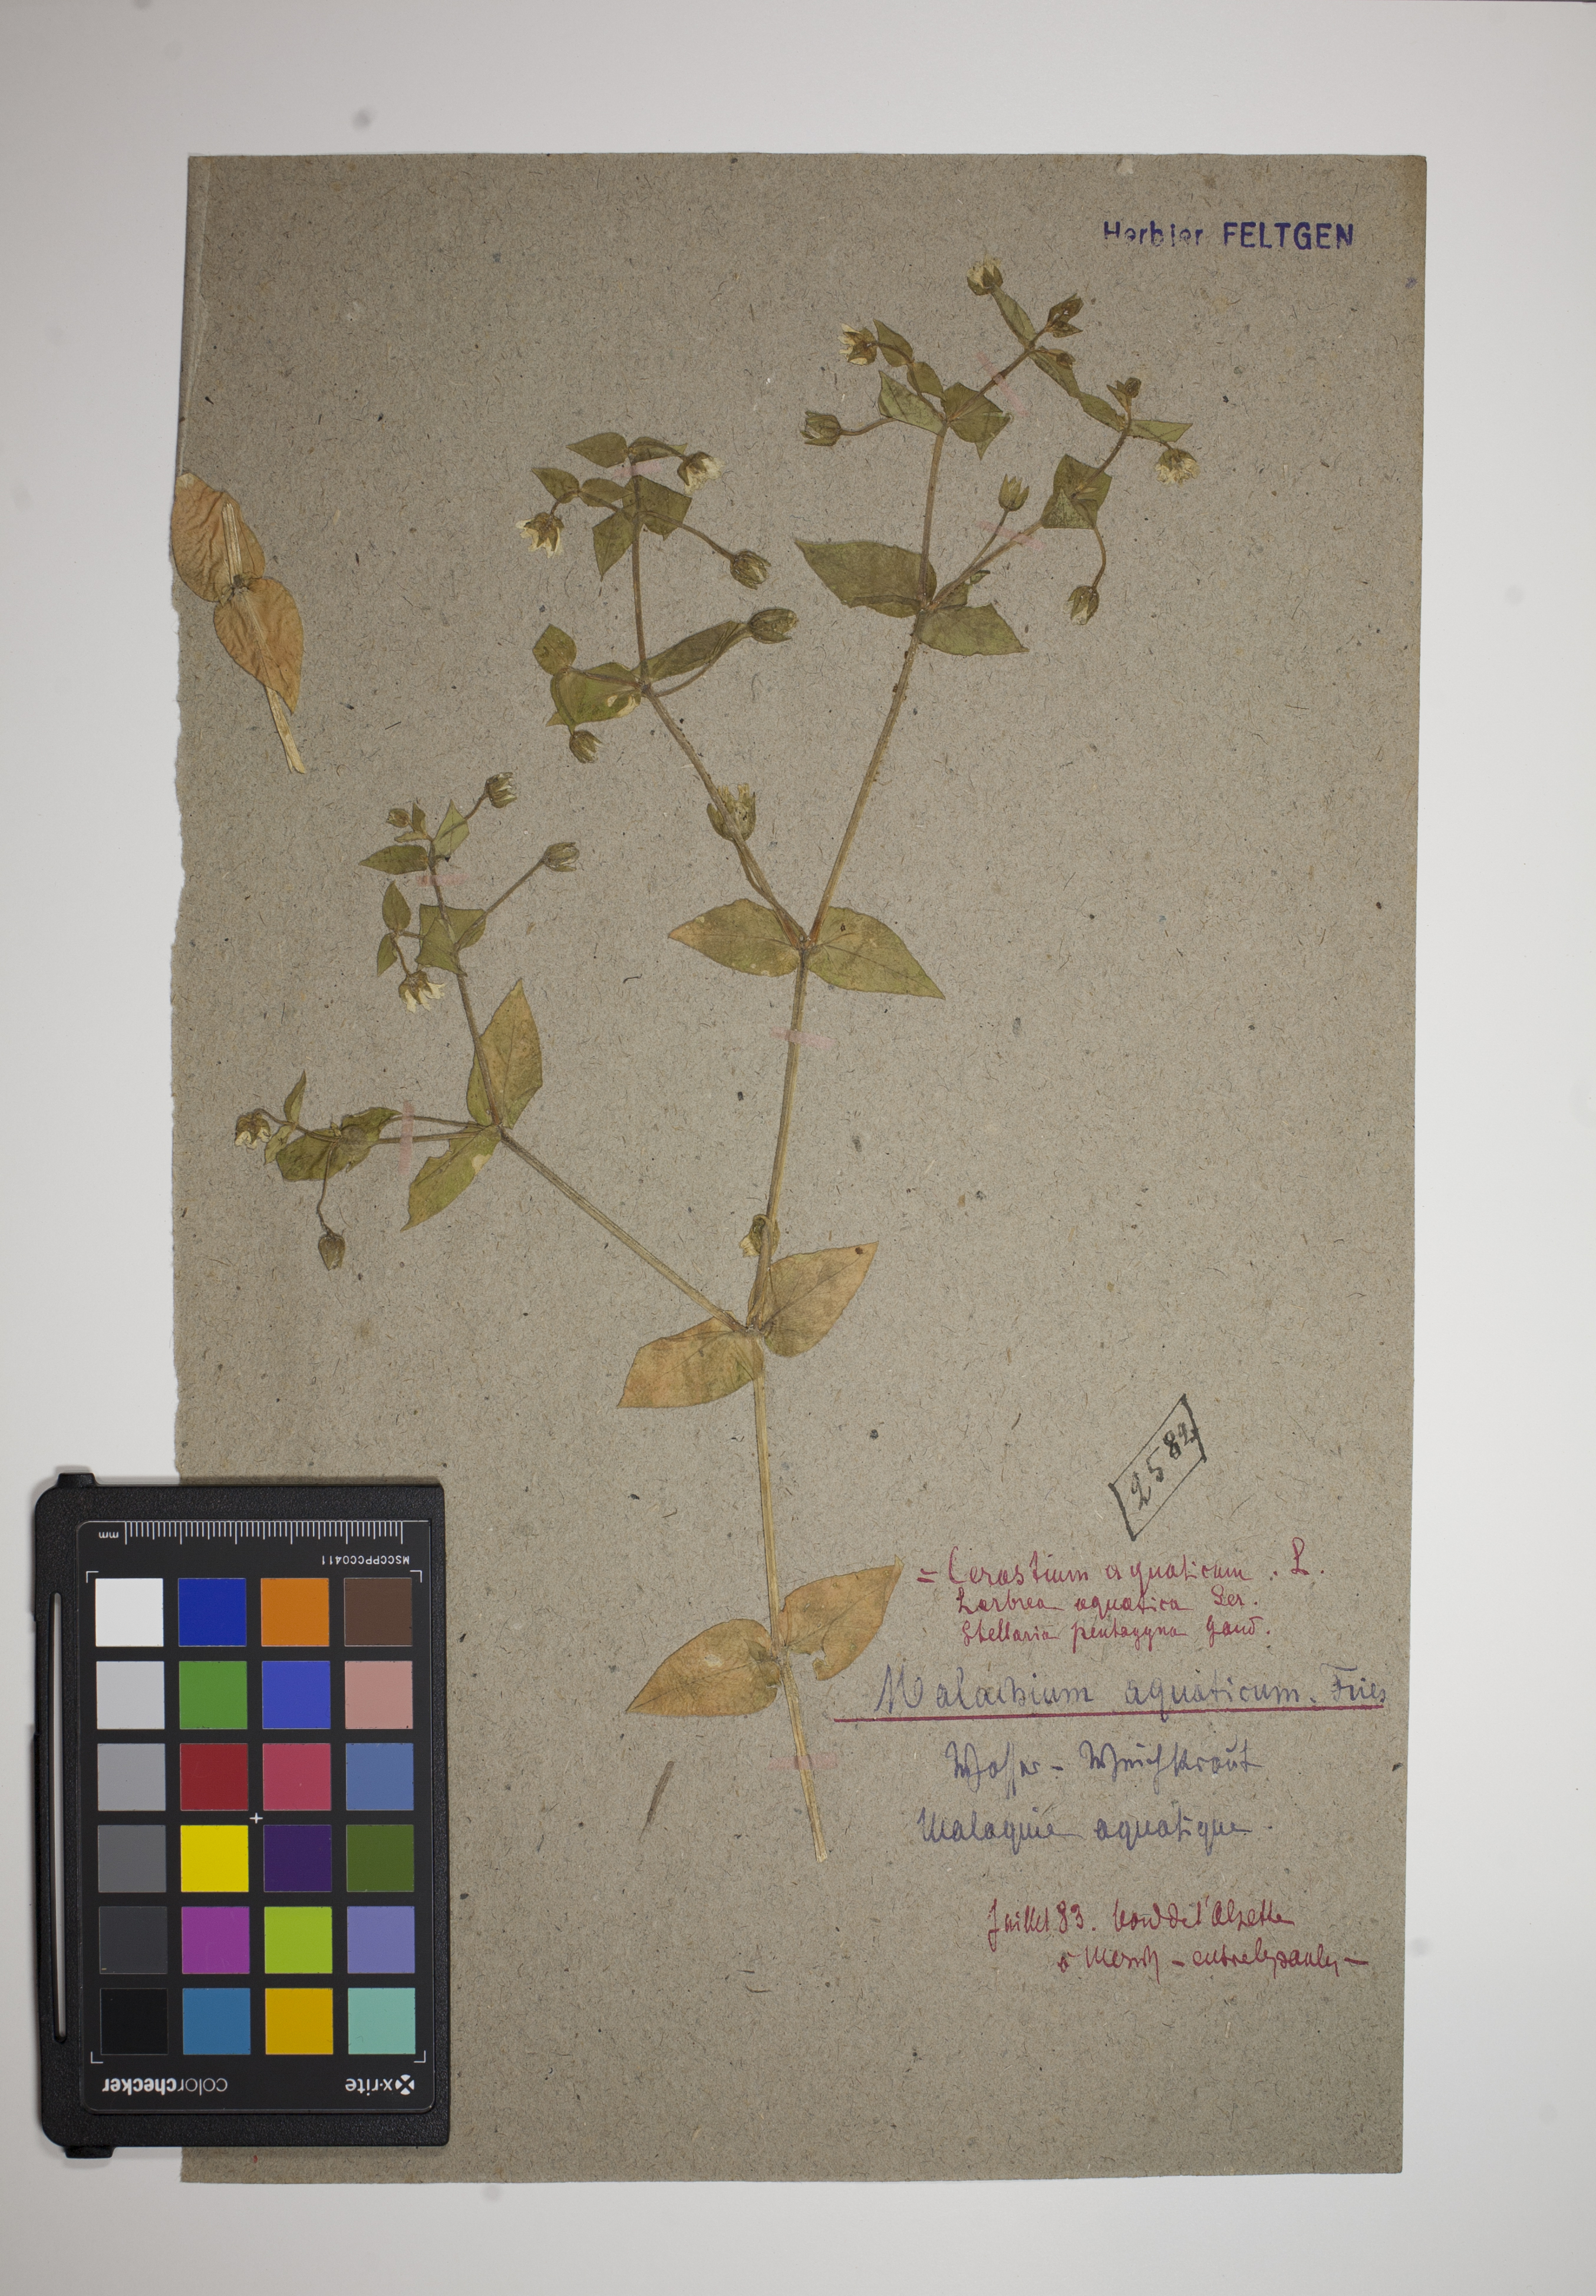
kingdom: Plantae
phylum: Tracheophyta
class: Magnoliopsida
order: Caryophyllales
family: Caryophyllaceae
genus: Stellaria
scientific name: Stellaria aquatica
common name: Water chickweed
